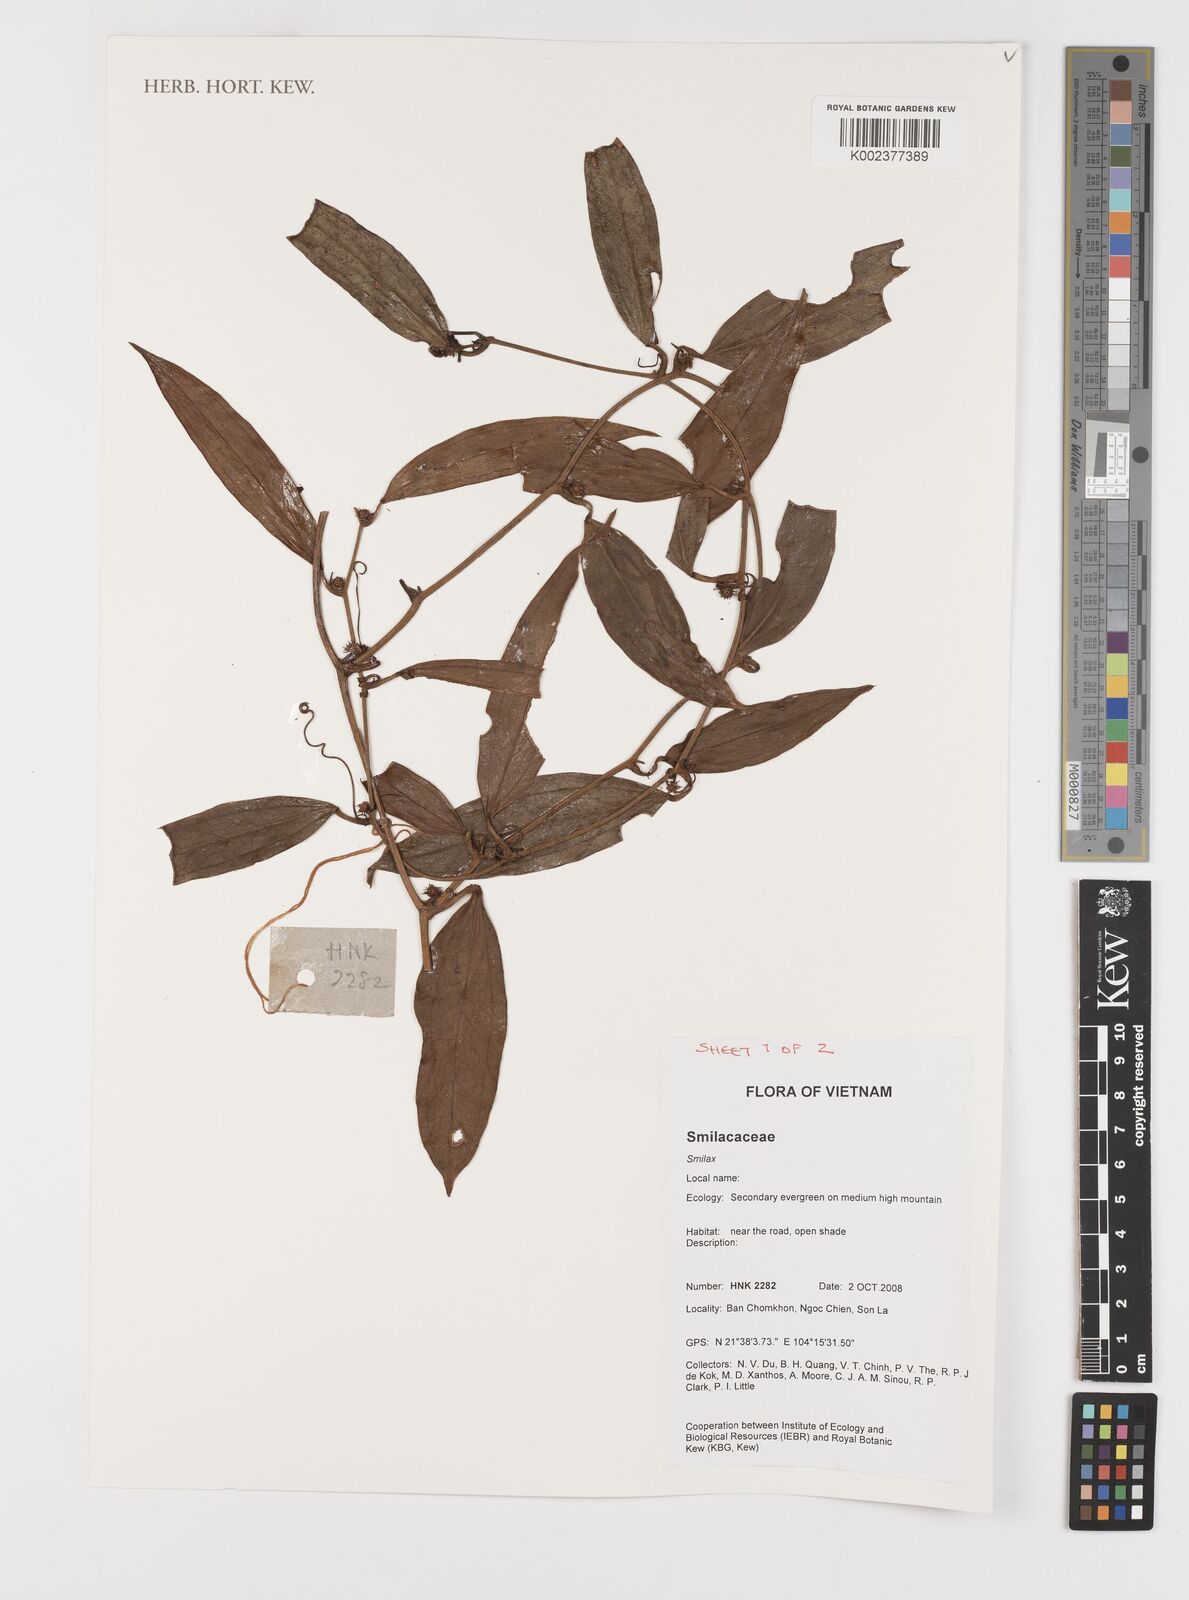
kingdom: Plantae
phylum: Tracheophyta
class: Liliopsida
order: Liliales
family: Smilacaceae
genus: Smilax
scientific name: Smilax
